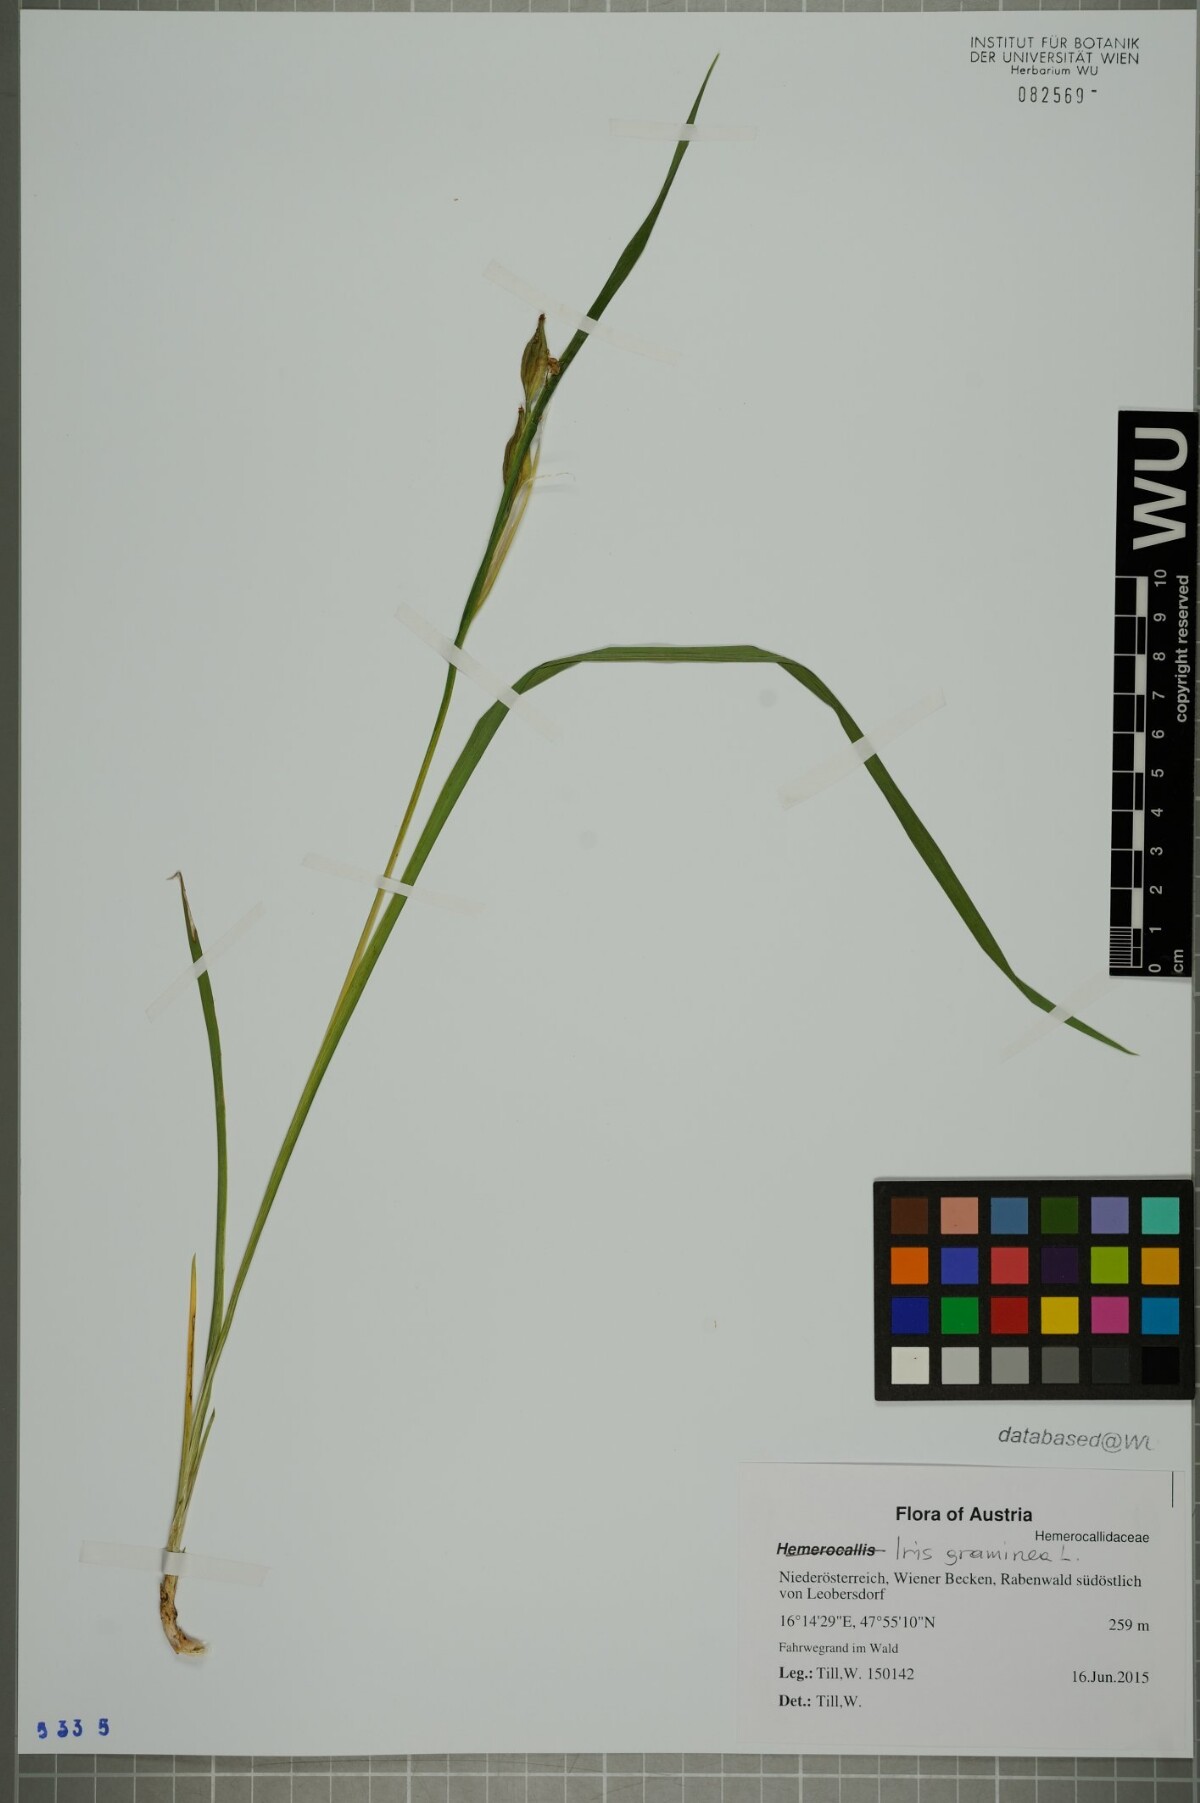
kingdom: Plantae
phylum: Tracheophyta
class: Liliopsida
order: Asparagales
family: Iridaceae
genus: Iris
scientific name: Iris graminea
